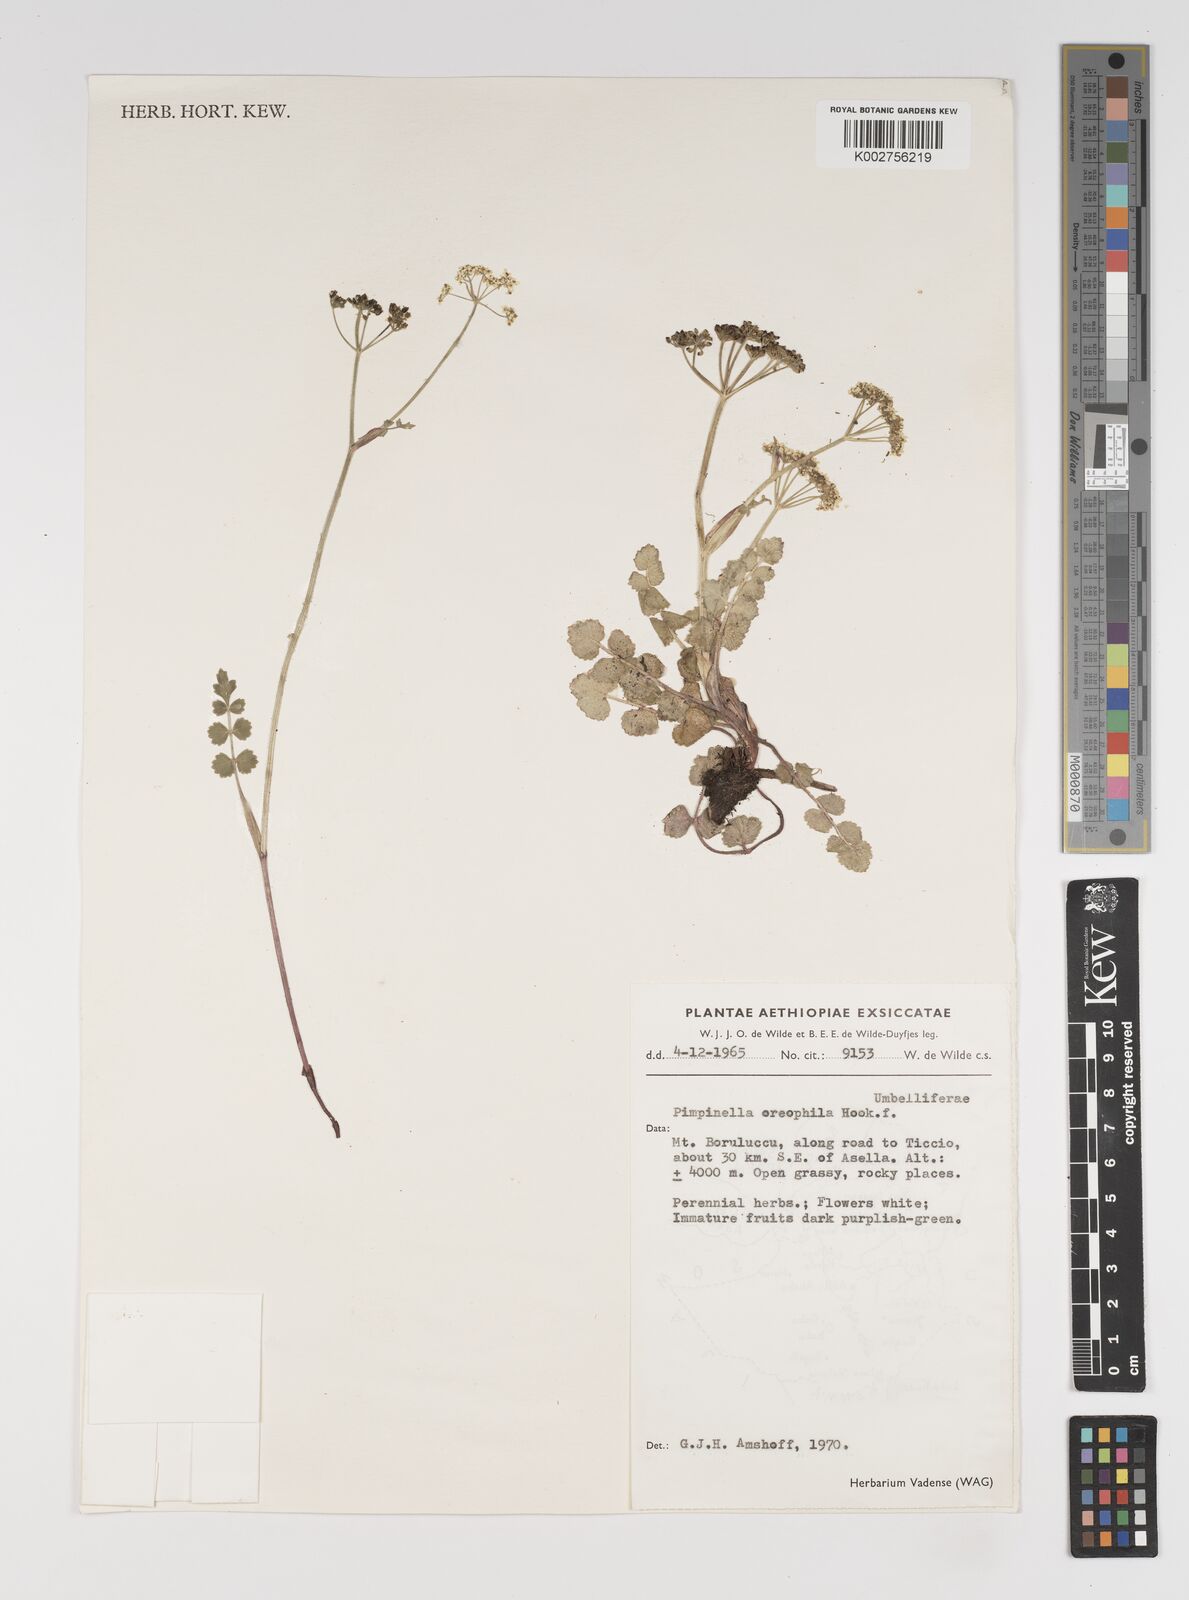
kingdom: Plantae
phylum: Tracheophyta
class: Magnoliopsida
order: Apiales
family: Apiaceae
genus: Pimpinella
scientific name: Pimpinella oreophila
